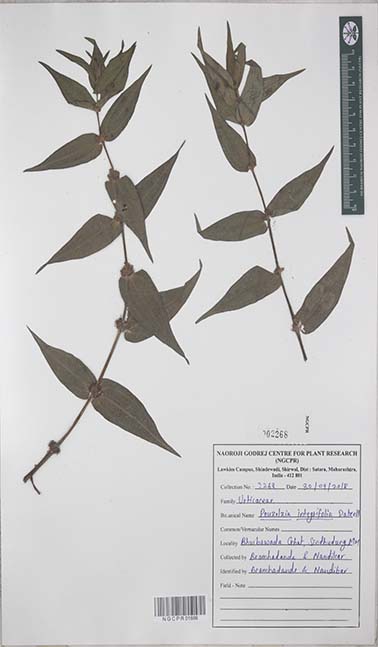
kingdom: Plantae
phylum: Tracheophyta
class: Magnoliopsida
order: Rosales
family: Urticaceae
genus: Gonostegia
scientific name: Gonostegia triandra
